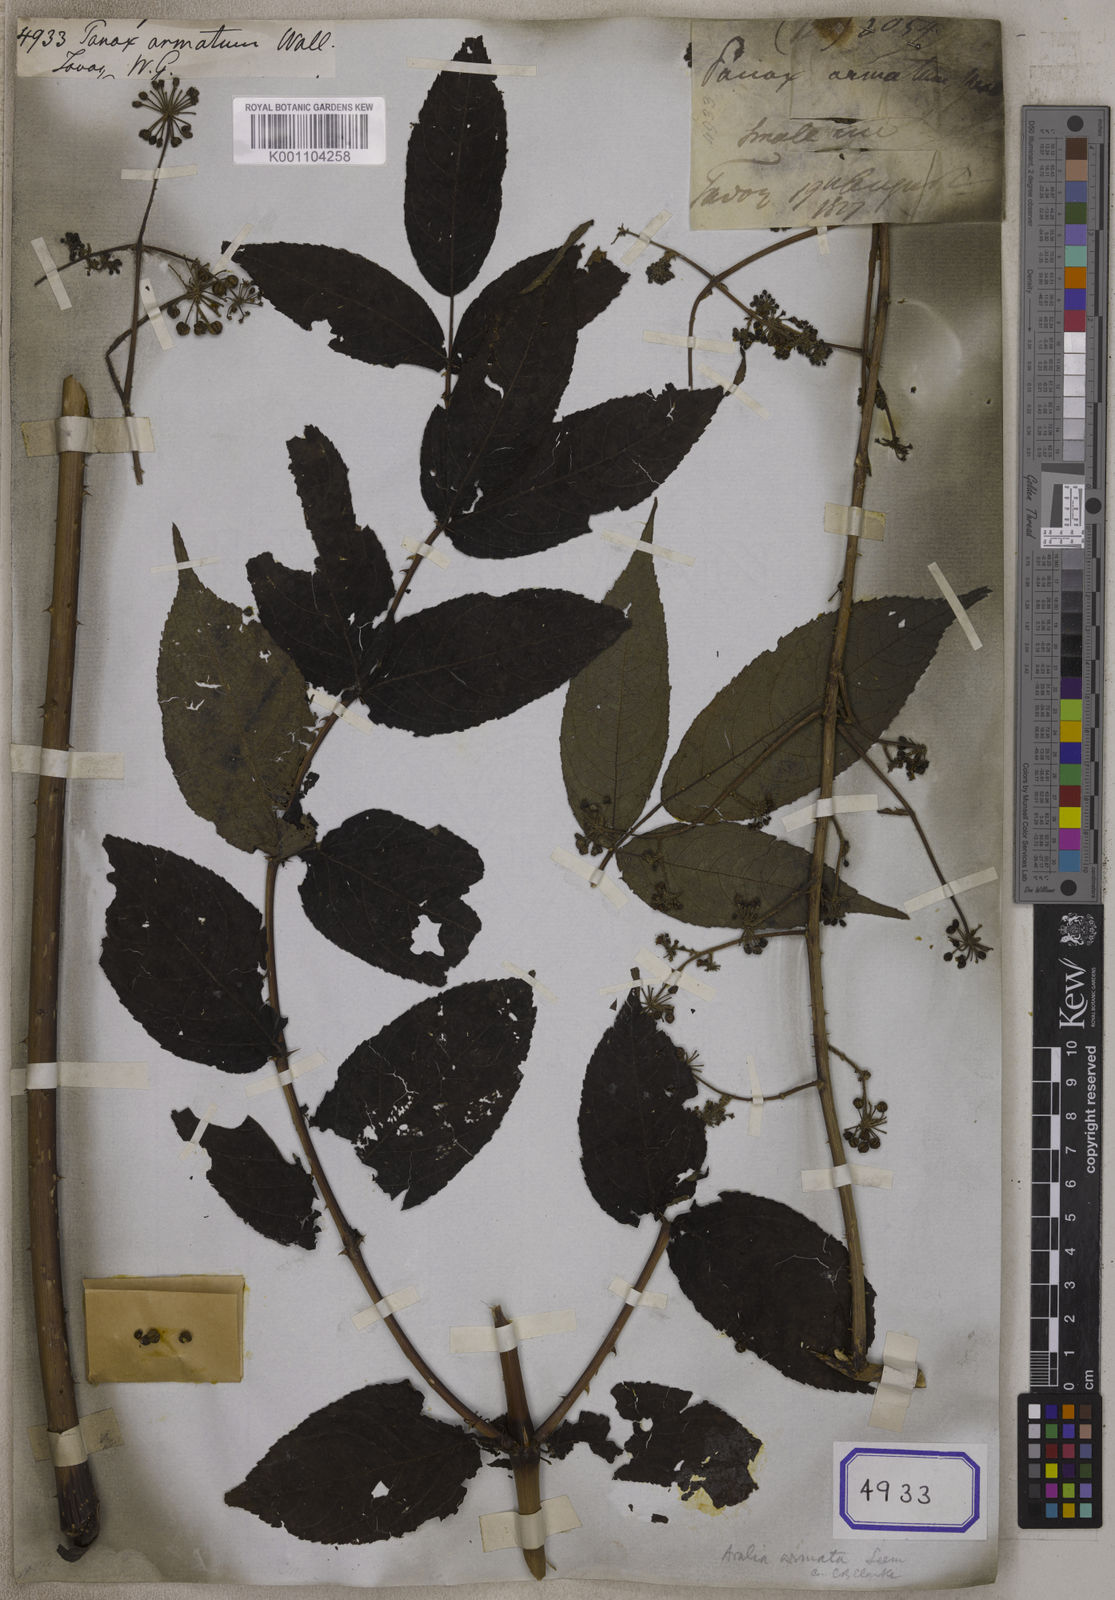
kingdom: Plantae
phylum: Tracheophyta
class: Magnoliopsida
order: Apiales
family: Araliaceae
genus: Panax
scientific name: Panax
